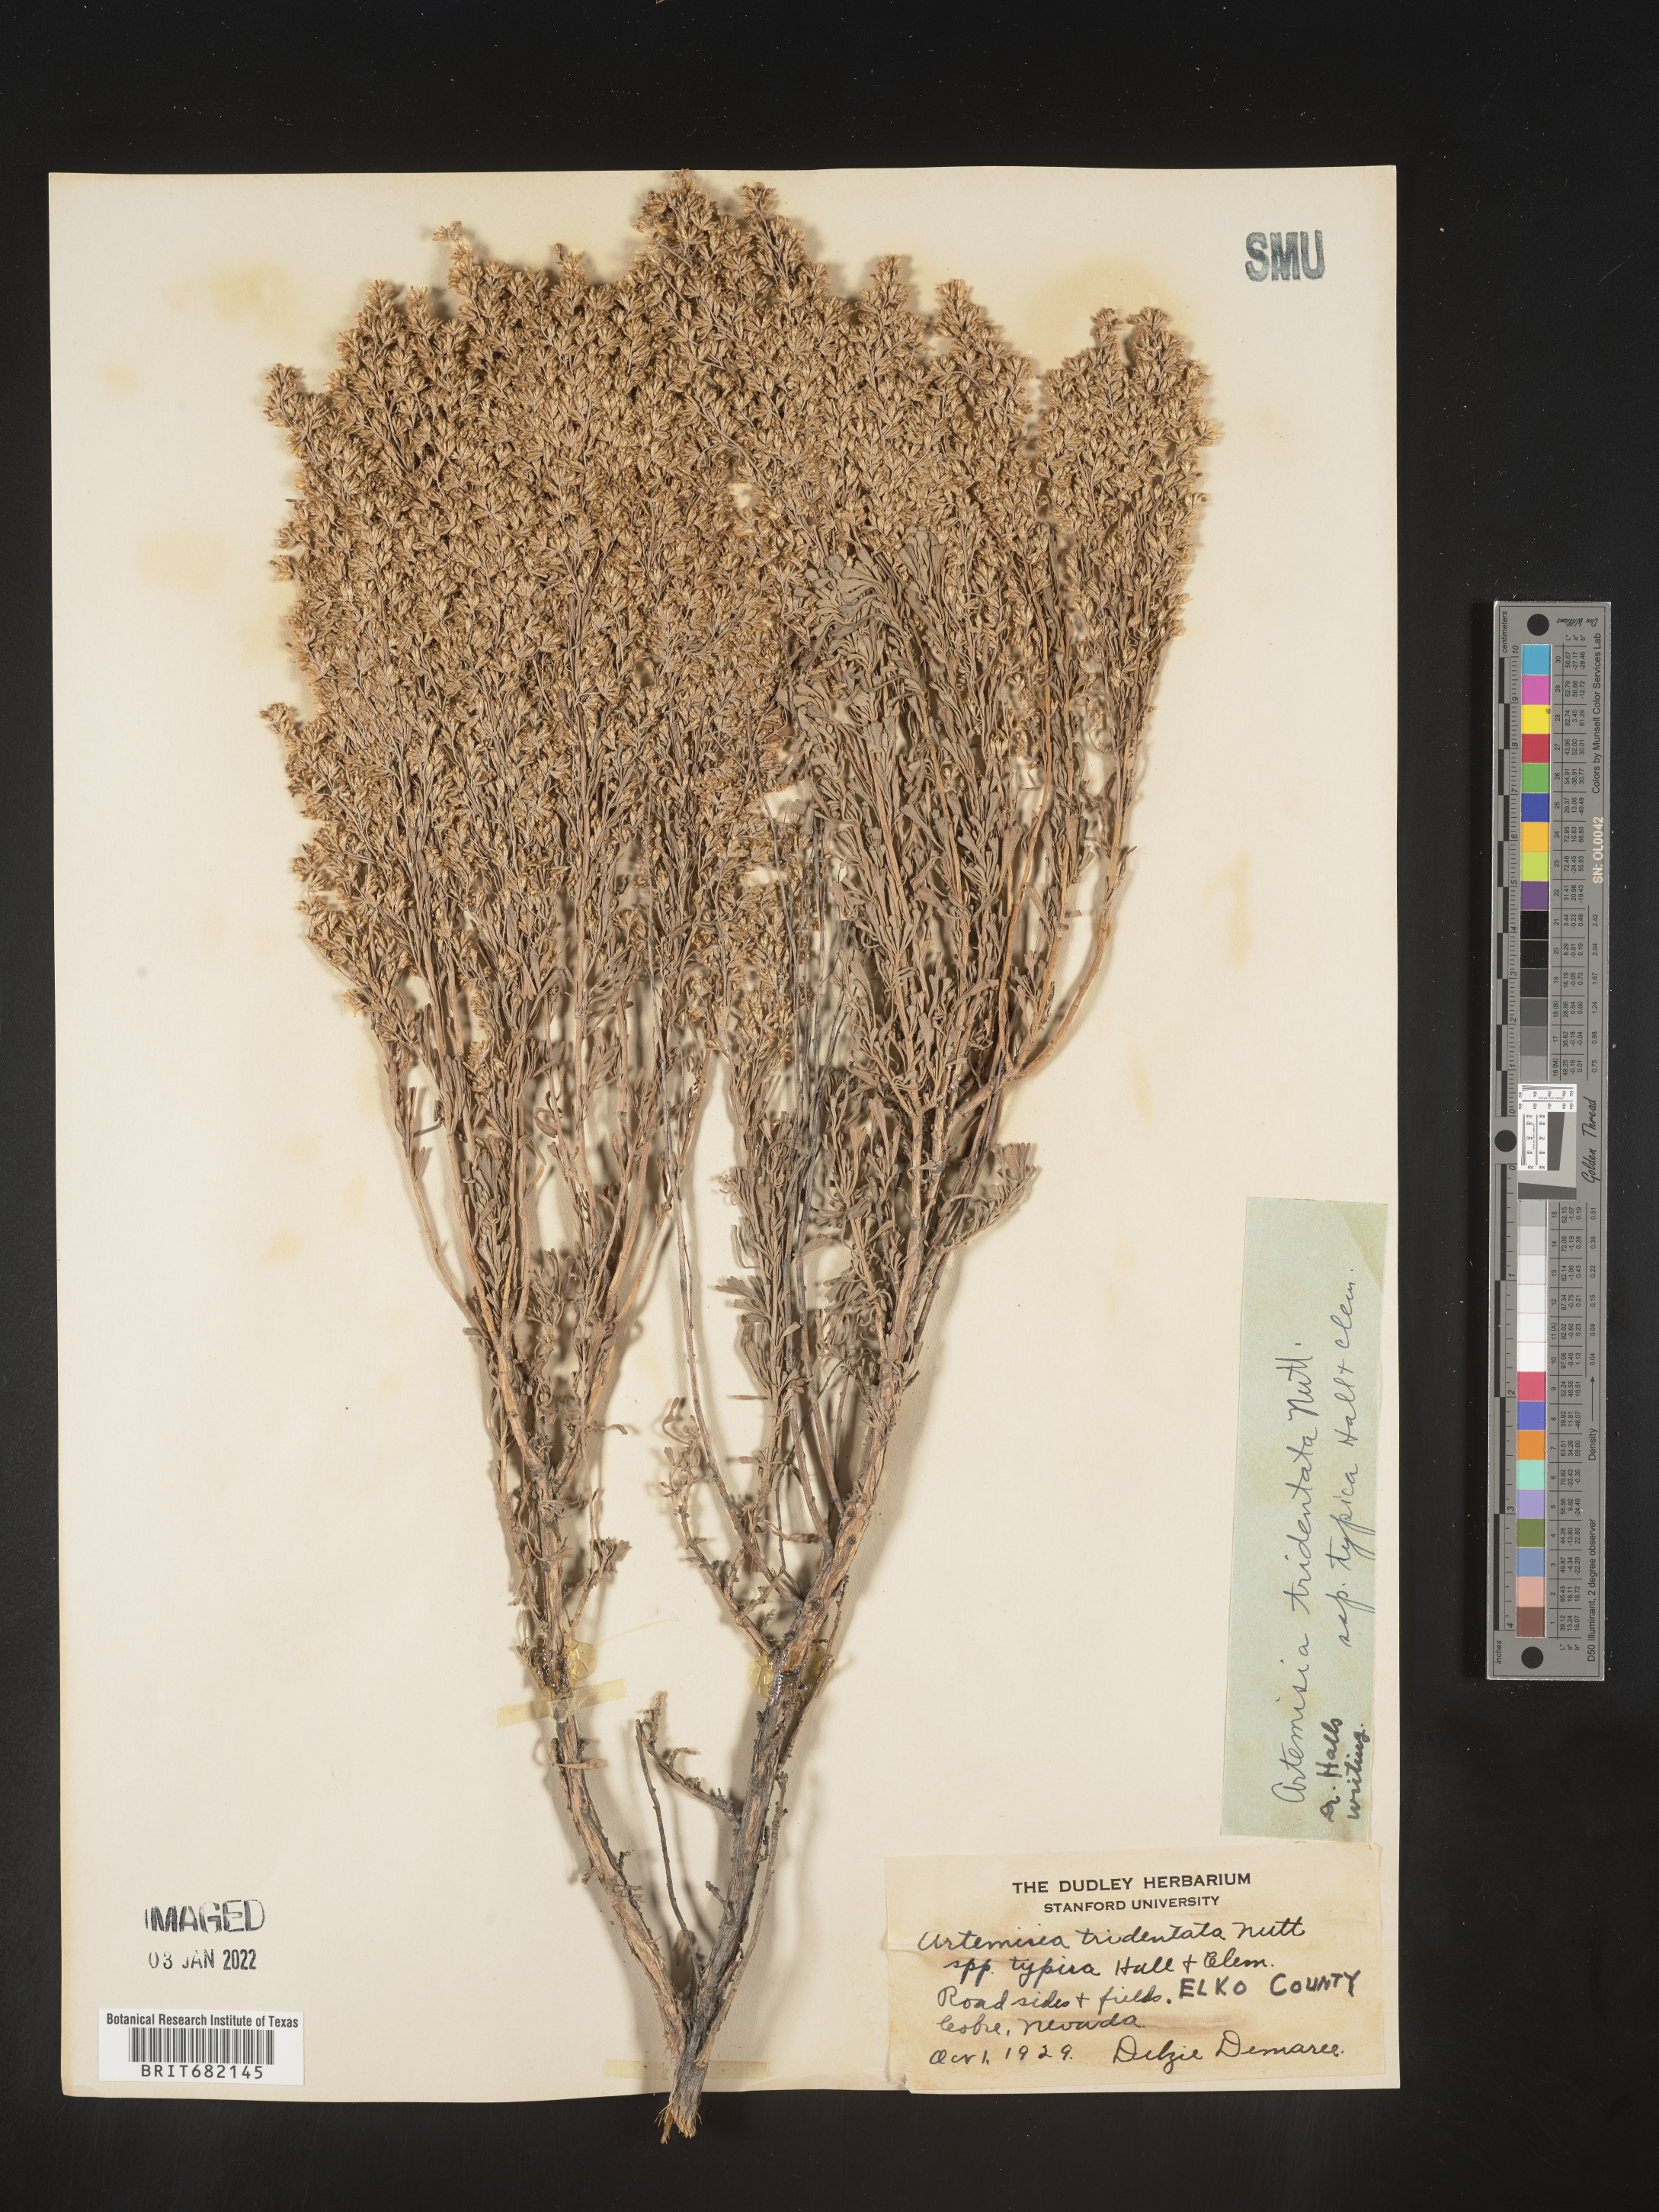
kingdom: Plantae
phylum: Tracheophyta
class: Magnoliopsida
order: Asterales
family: Asteraceae
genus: Artemisia
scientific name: Artemisia tridentata
